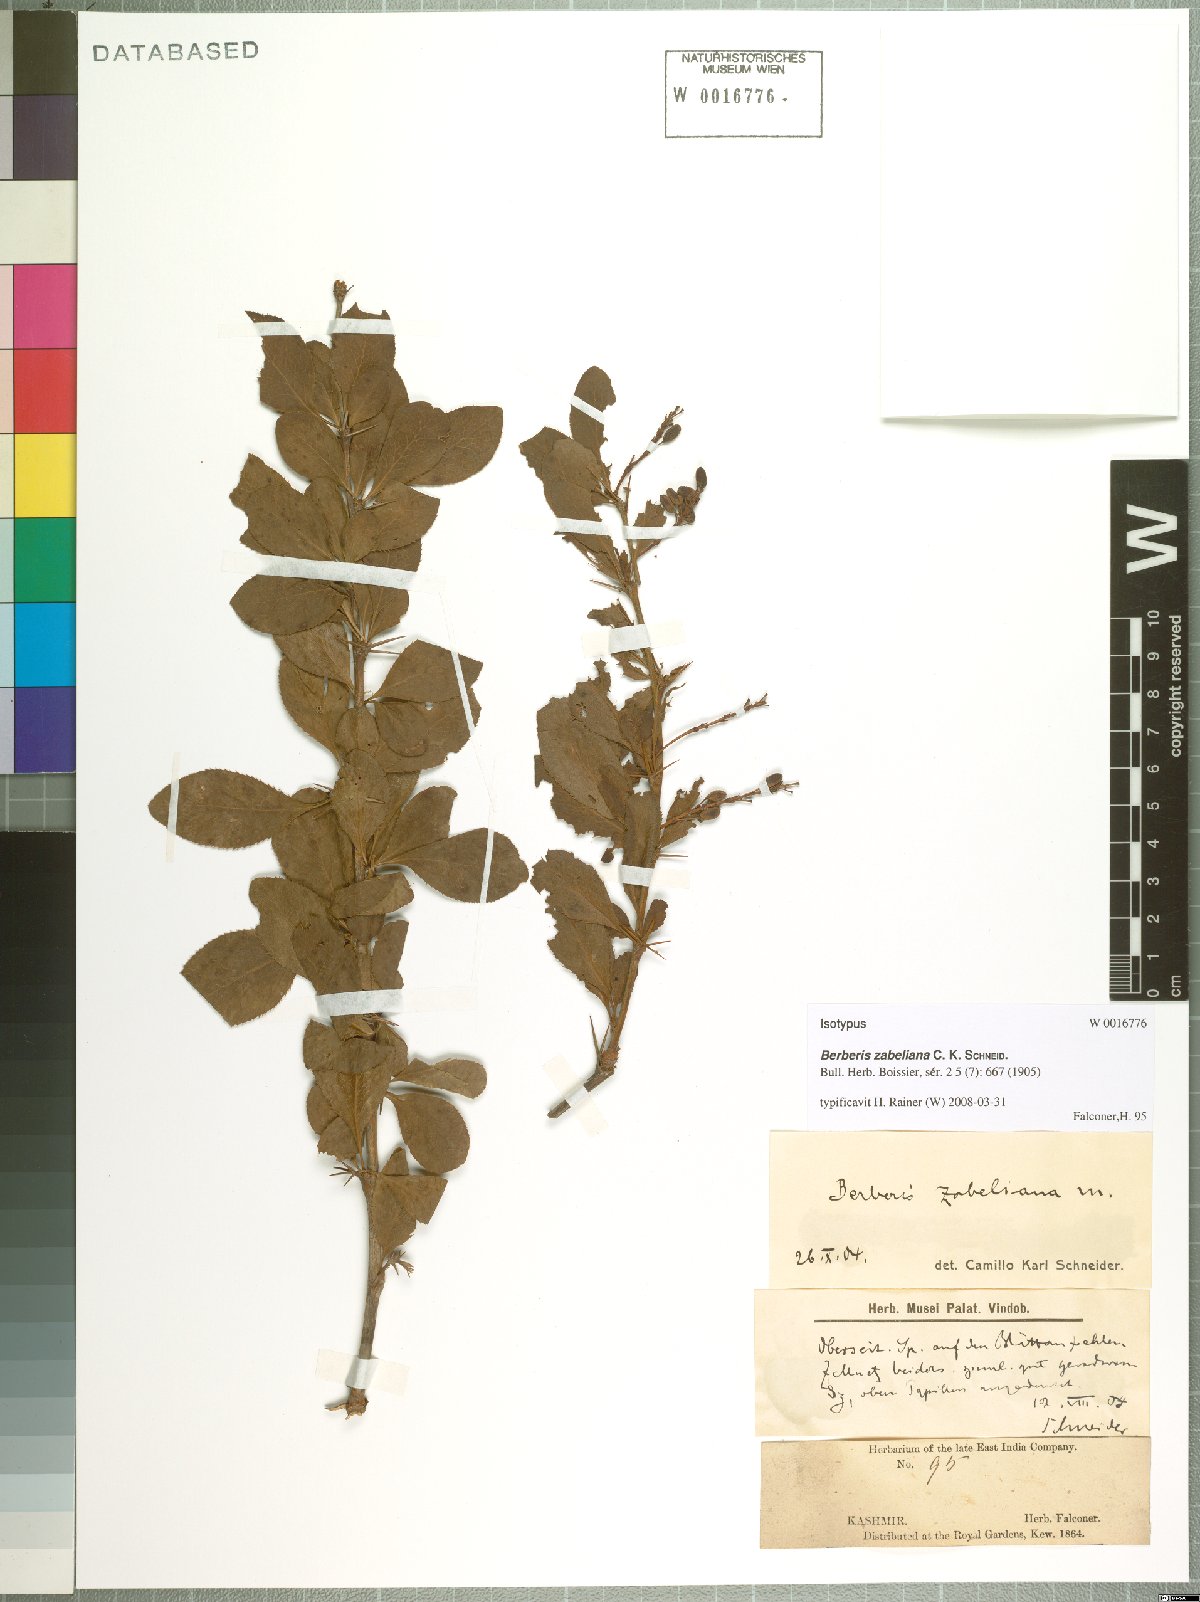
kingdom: Plantae
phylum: Tracheophyta
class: Magnoliopsida
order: Ranunculales
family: Berberidaceae
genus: Berberis
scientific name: Berberis pachyacantha
